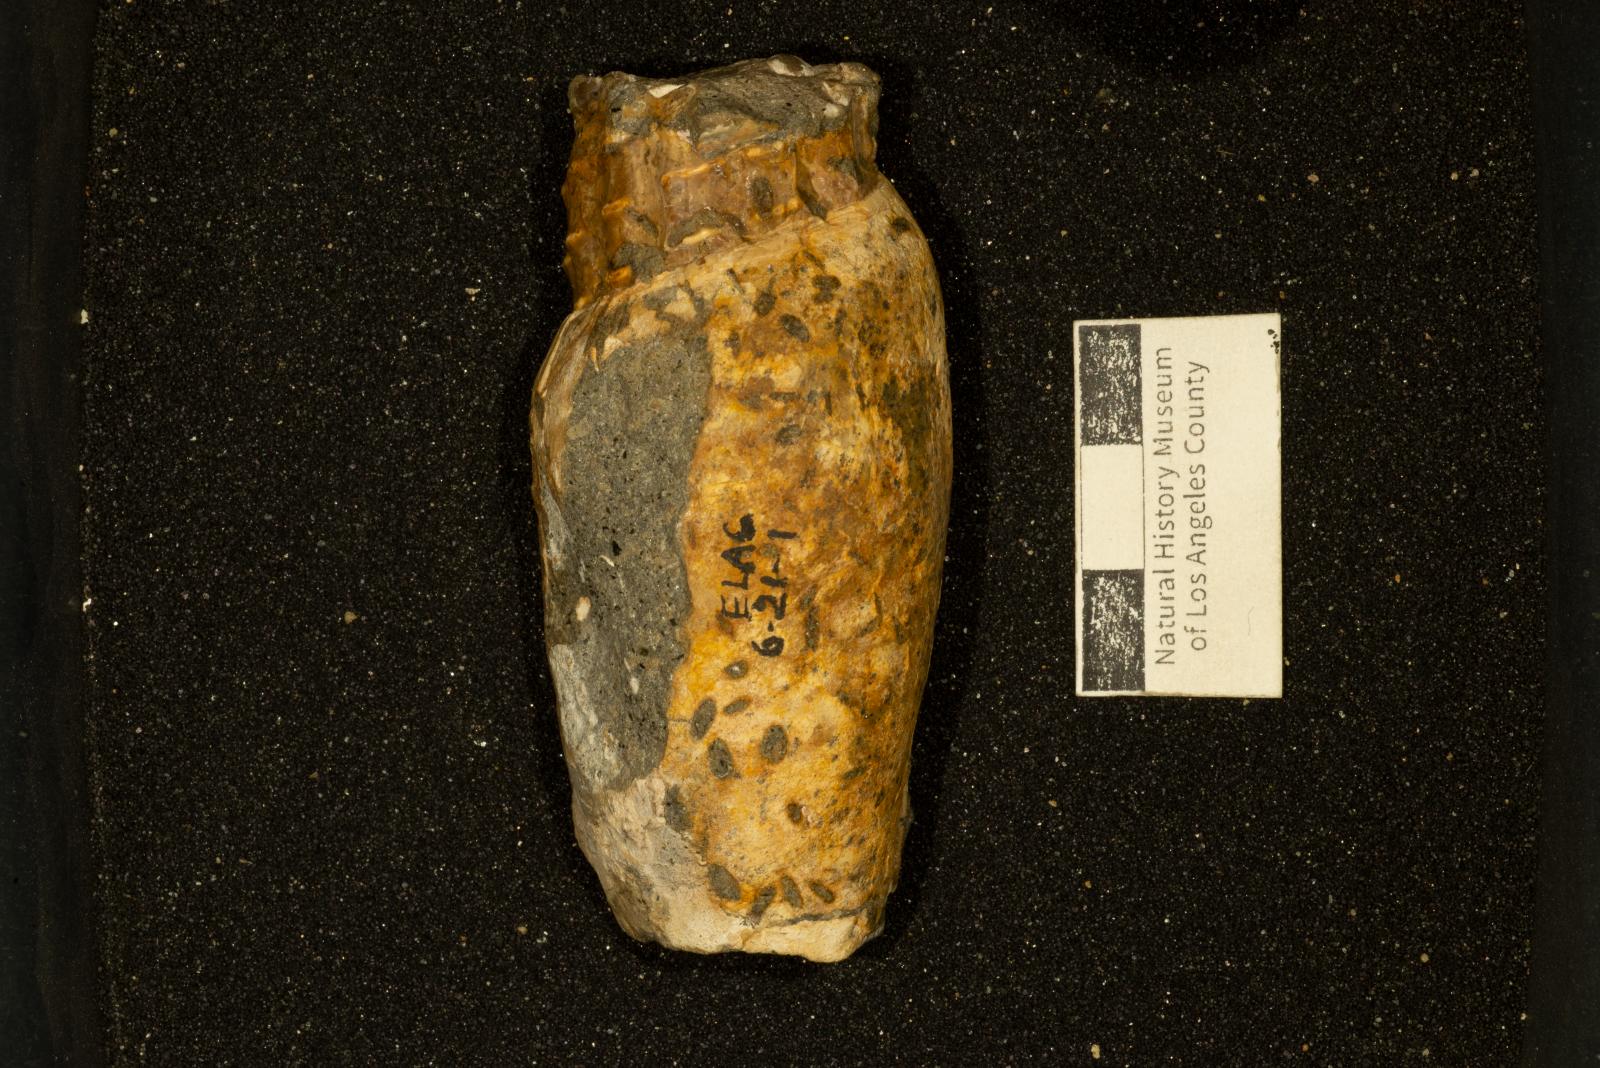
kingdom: Animalia
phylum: Arthropoda
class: Maxillopoda
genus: Rogerella
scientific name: Rogerella
